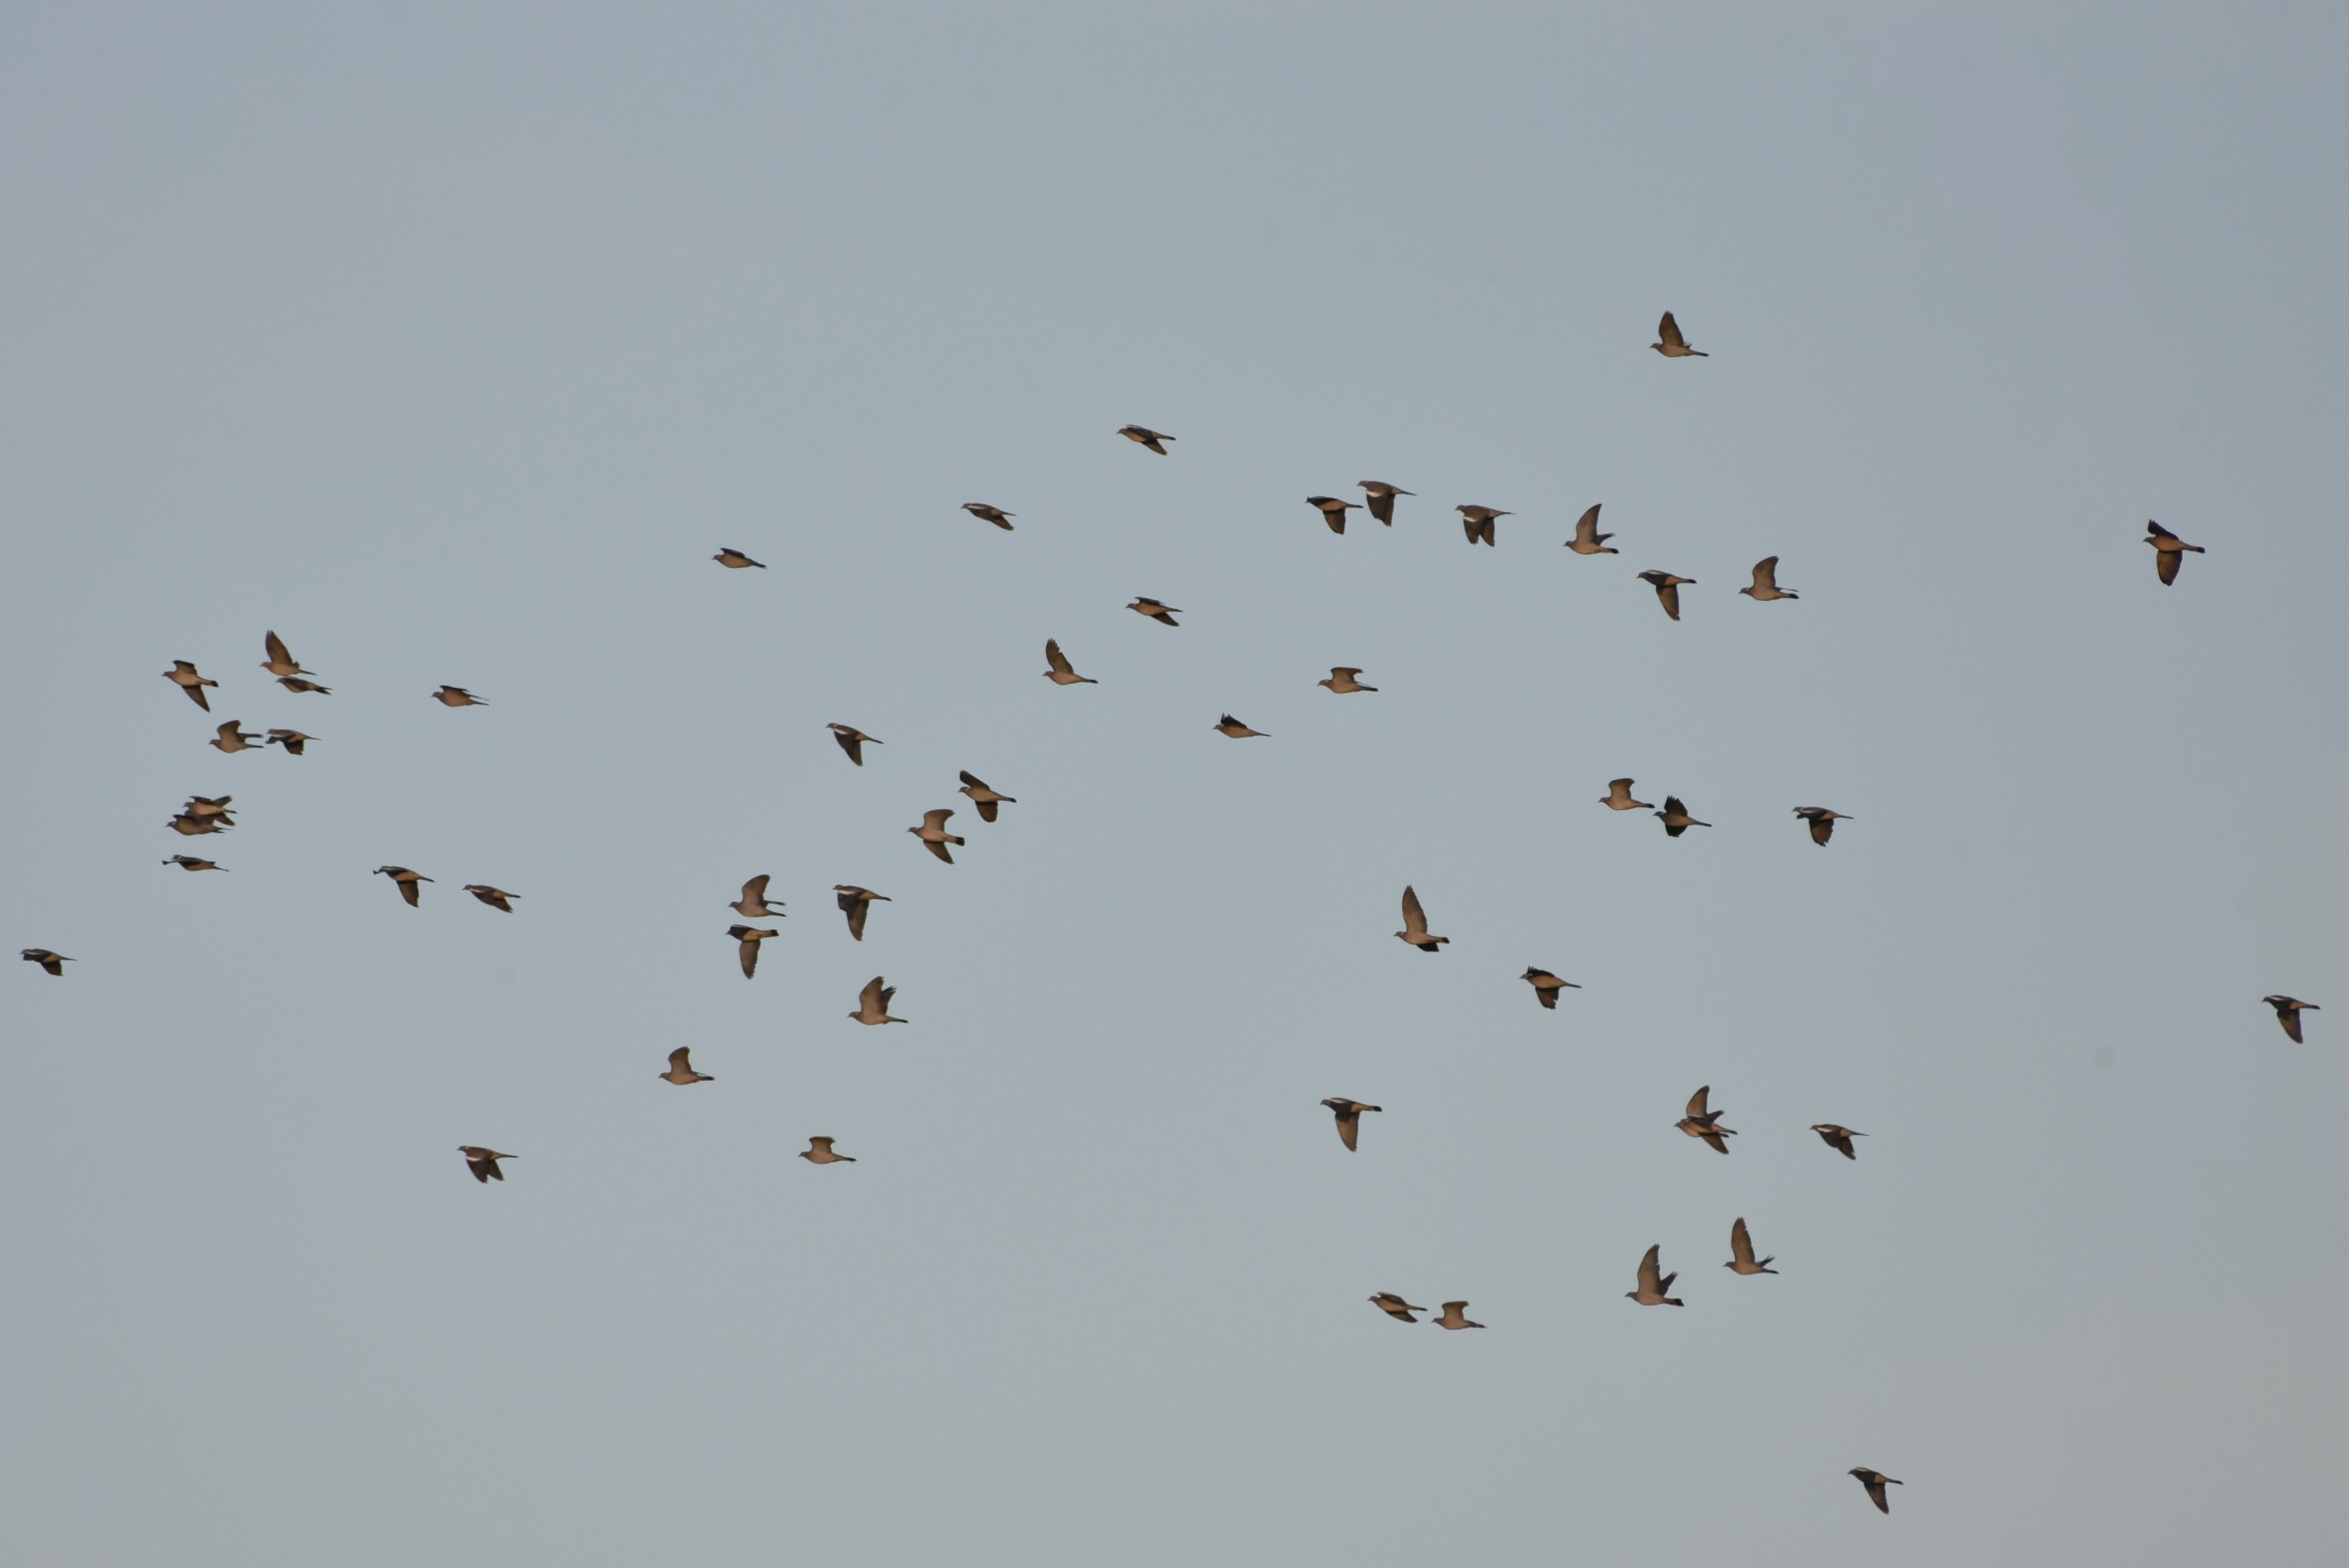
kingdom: Animalia
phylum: Chordata
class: Aves
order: Columbiformes
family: Columbidae
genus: Columba
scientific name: Columba palumbus
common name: Ringdue
